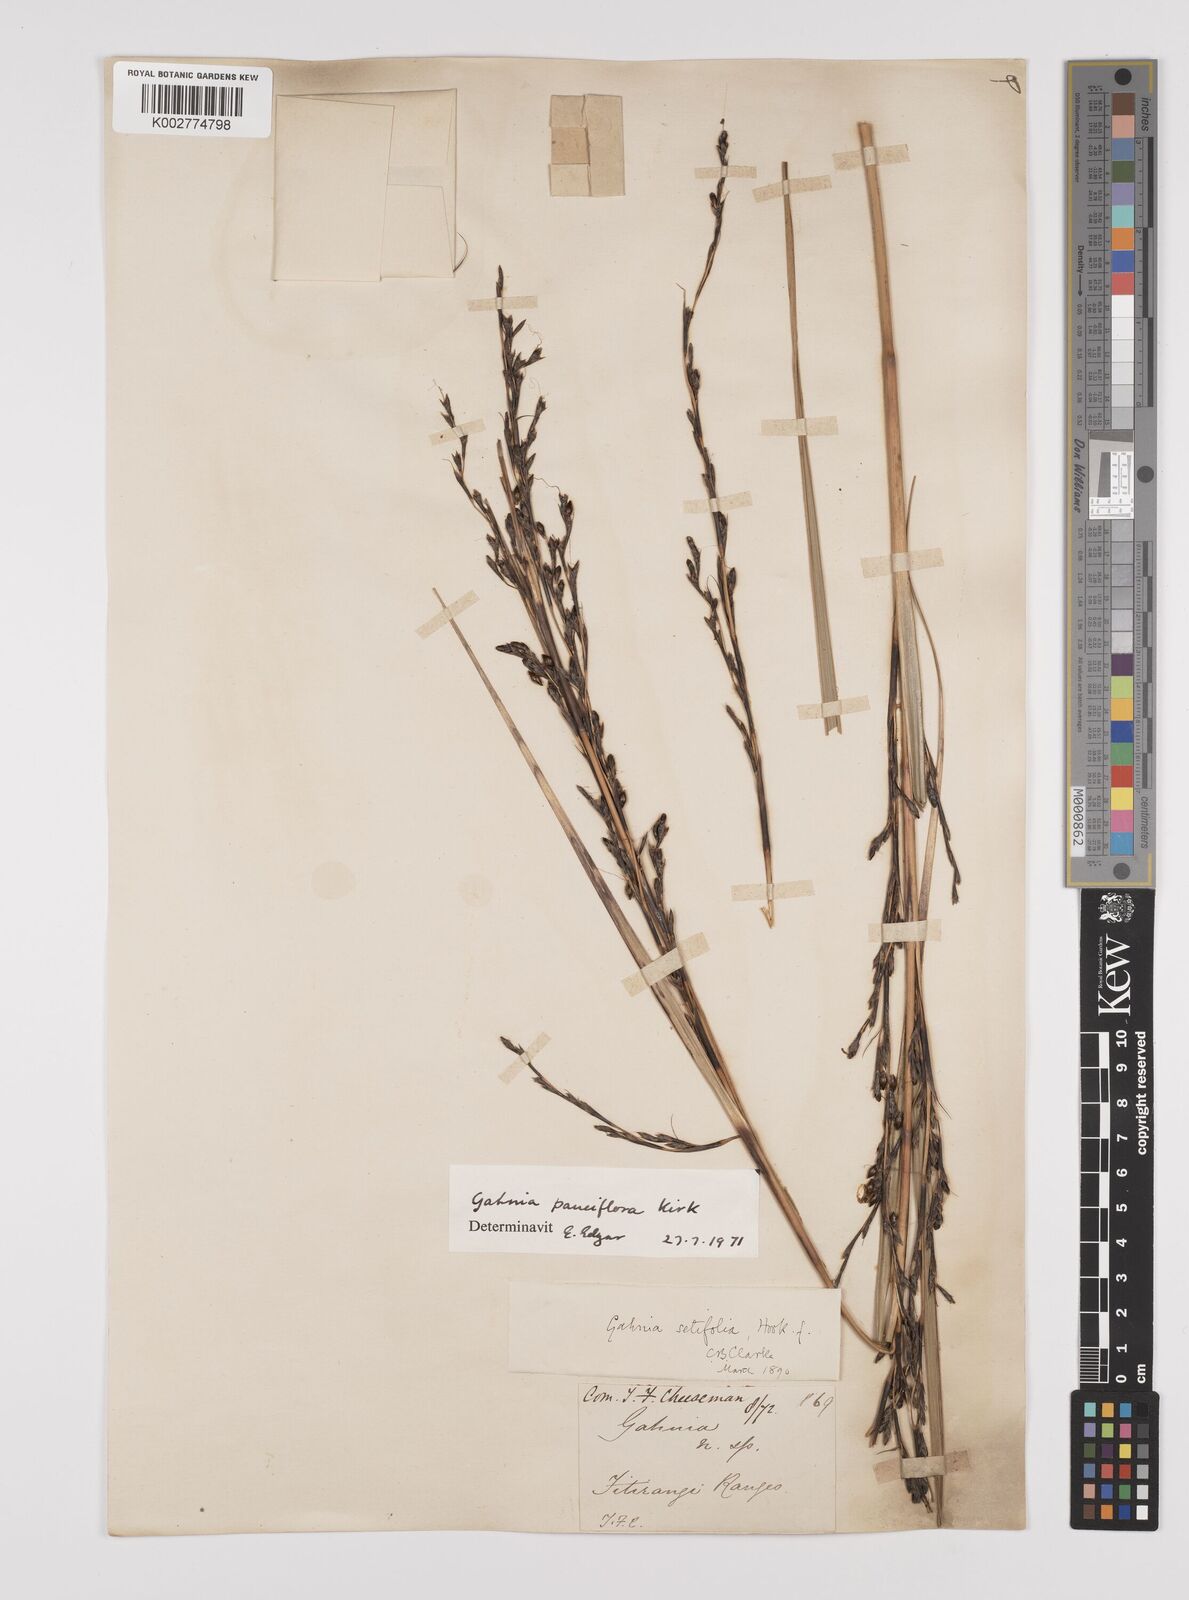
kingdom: Plantae
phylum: Tracheophyta
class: Liliopsida
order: Poales
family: Cyperaceae
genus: Gahnia
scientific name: Gahnia pauciflora
